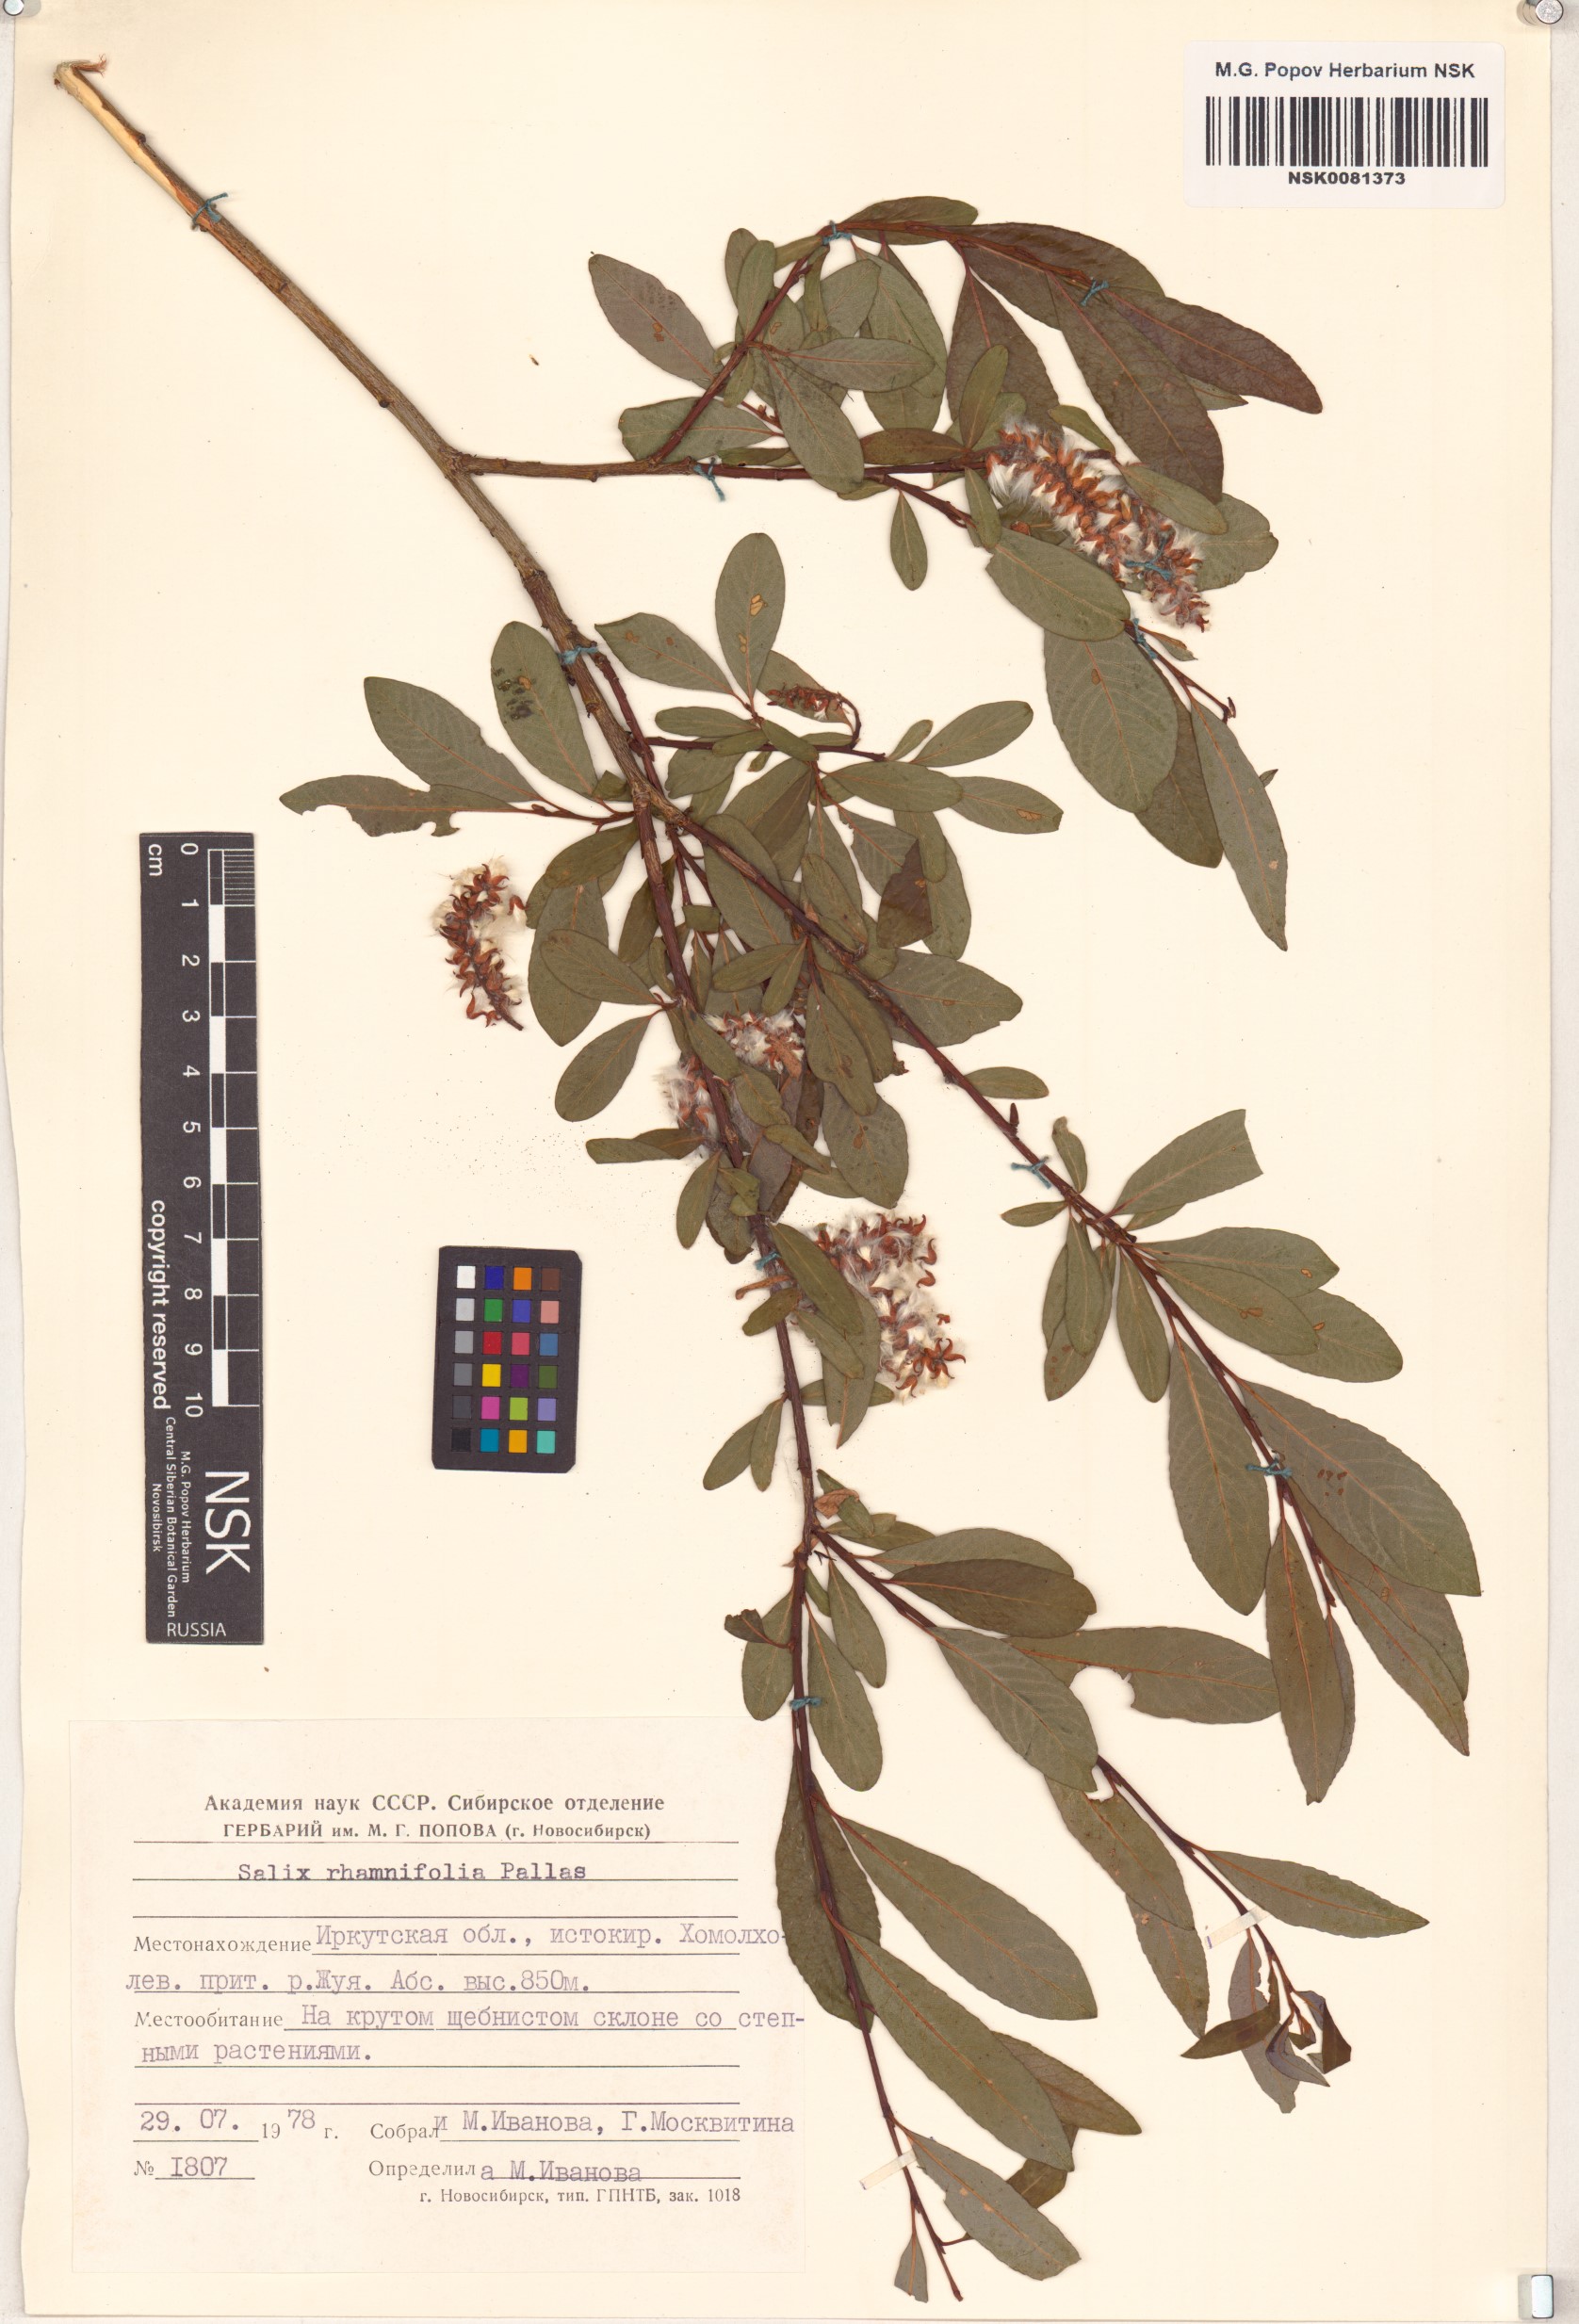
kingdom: Plantae
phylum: Tracheophyta
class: Magnoliopsida
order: Malpighiales
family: Salicaceae
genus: Salix
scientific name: Salix rhamnifolia
